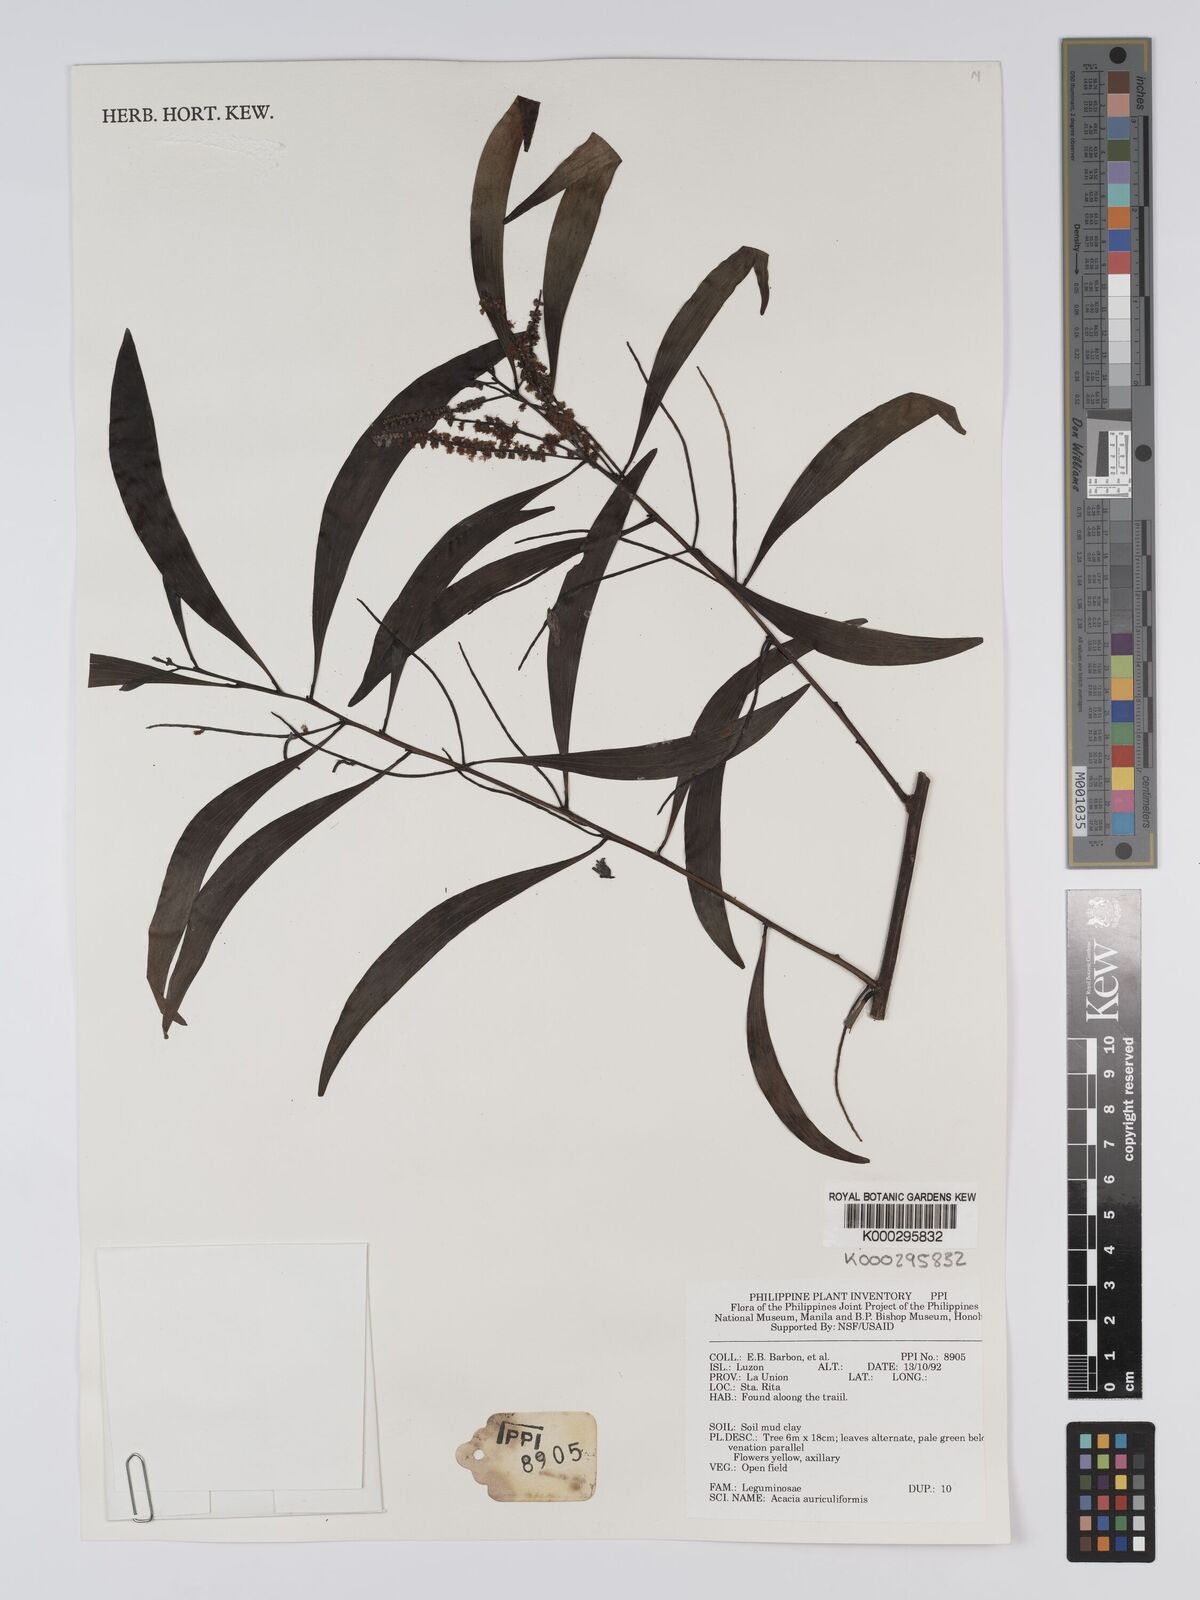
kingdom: Plantae
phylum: Tracheophyta
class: Magnoliopsida
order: Fabales
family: Fabaceae
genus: Acacia
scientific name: Acacia auriculiformis
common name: Earleaf acacia
